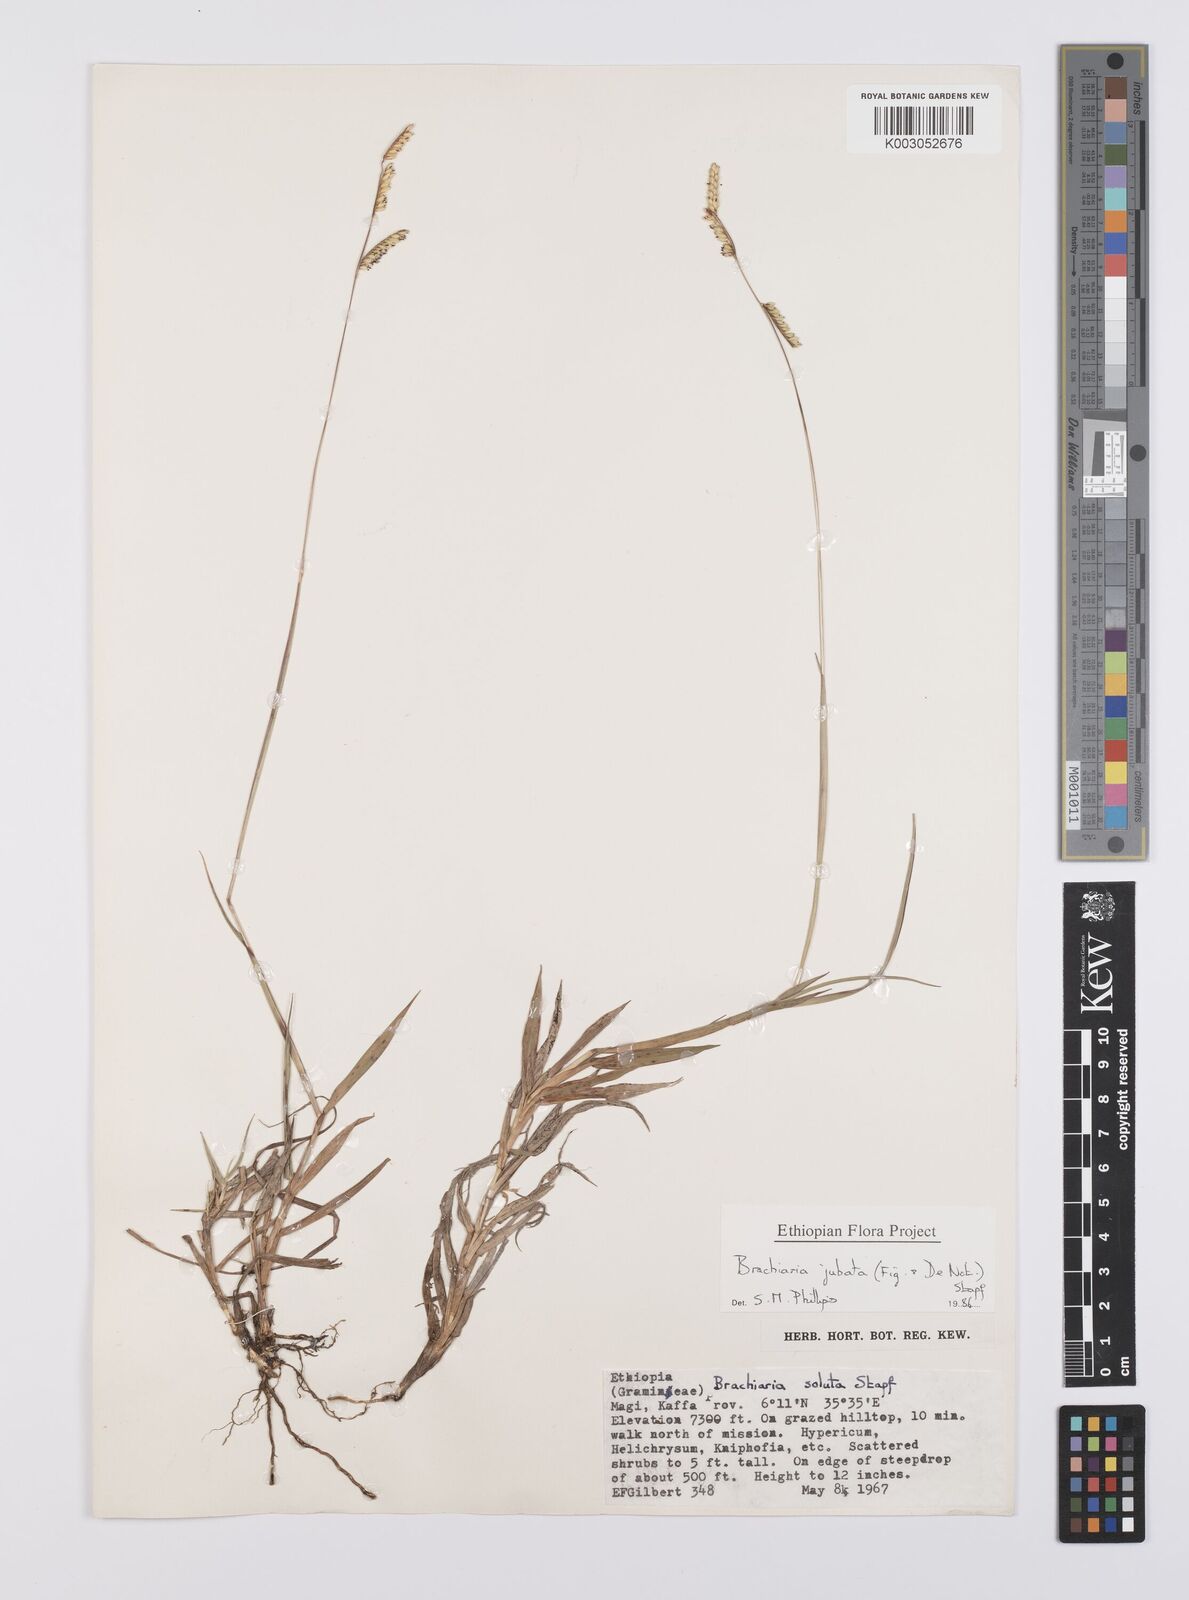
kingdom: Plantae
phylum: Tracheophyta
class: Liliopsida
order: Poales
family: Poaceae
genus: Urochloa
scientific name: Urochloa jubata
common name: Buffalograss
